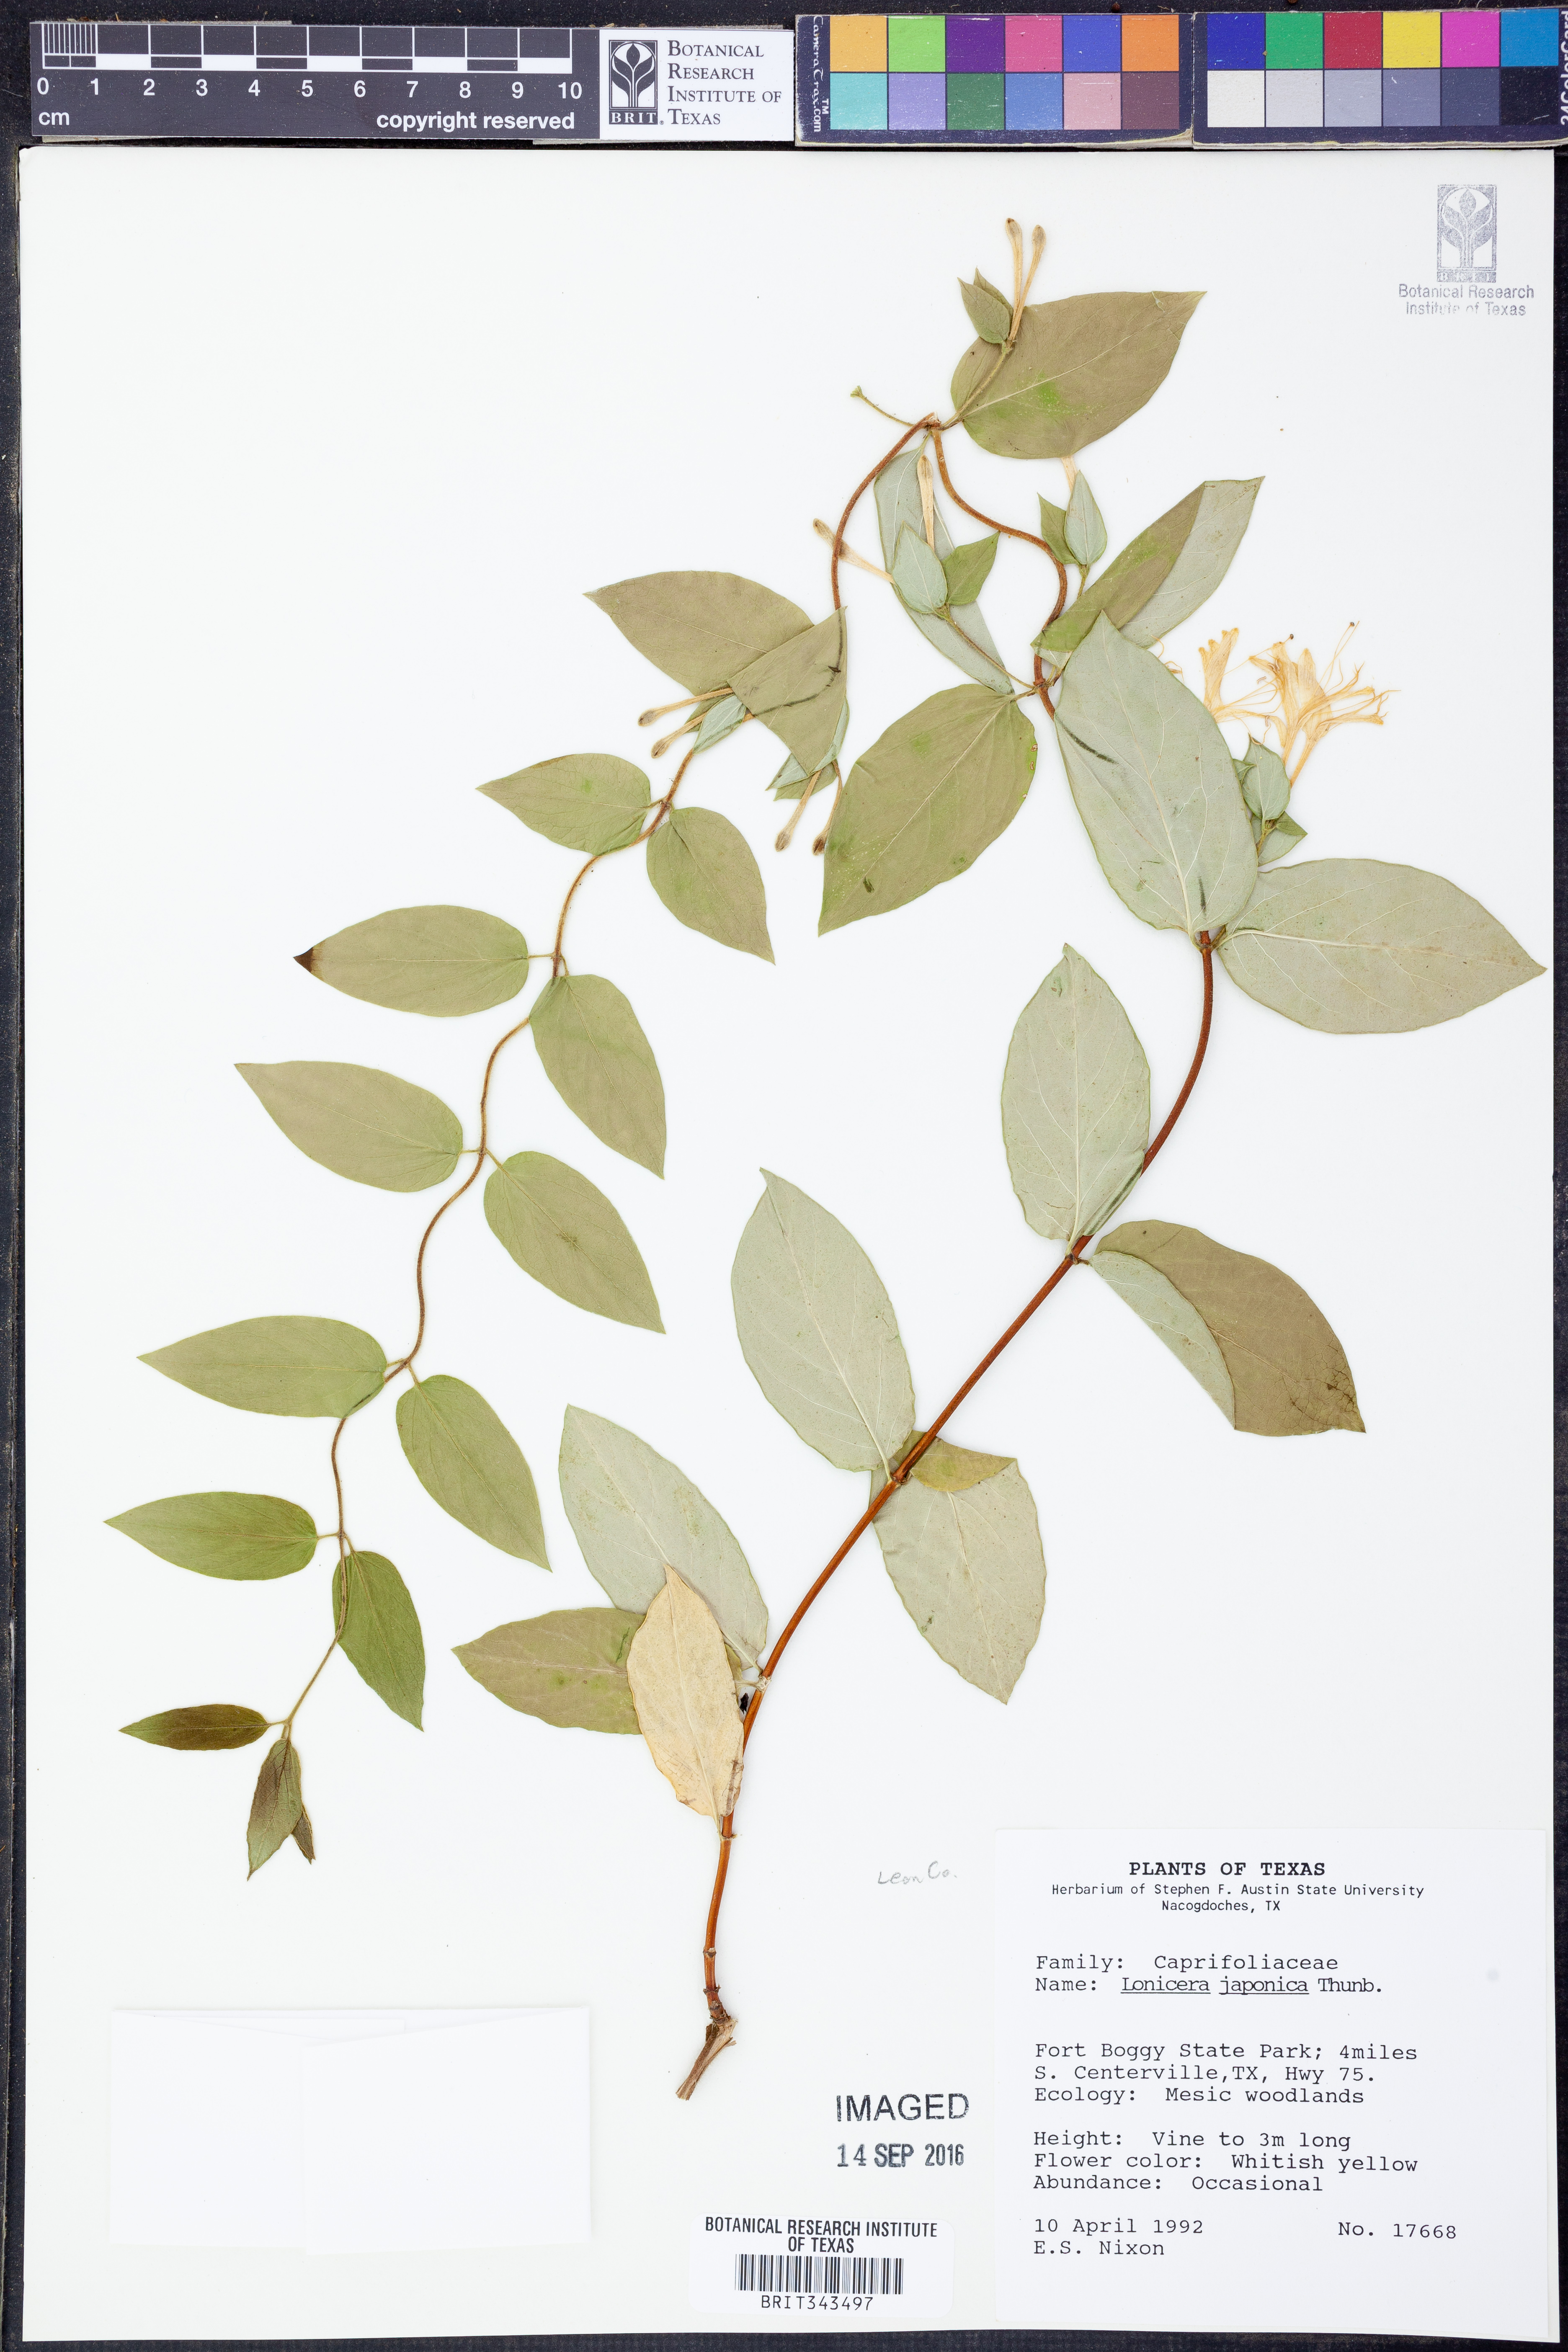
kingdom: Plantae
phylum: Tracheophyta
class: Magnoliopsida
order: Dipsacales
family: Caprifoliaceae
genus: Lonicera
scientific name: Lonicera japonica
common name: Japanese honeysuckle
